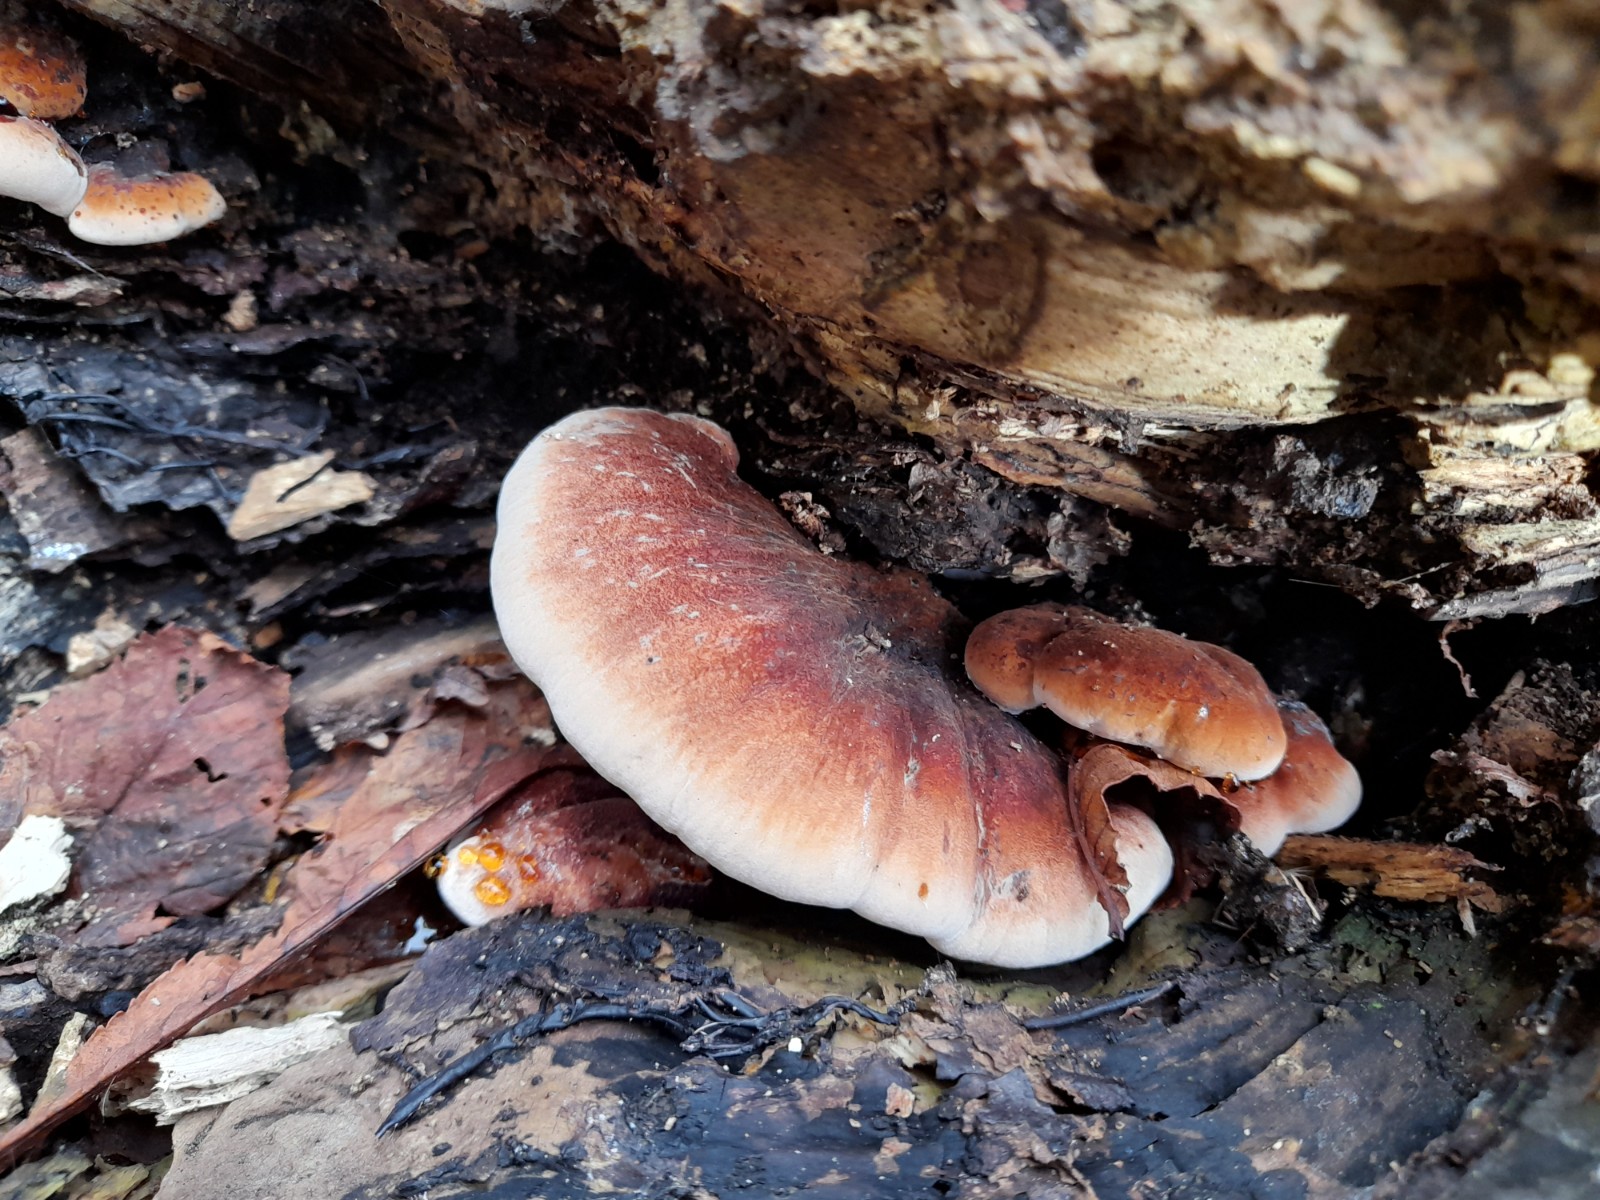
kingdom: Fungi
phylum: Basidiomycota
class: Agaricomycetes
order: Polyporales
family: Ischnodermataceae
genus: Ischnoderma
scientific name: Ischnoderma resinosum
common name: løv-tjæreporesvamp
